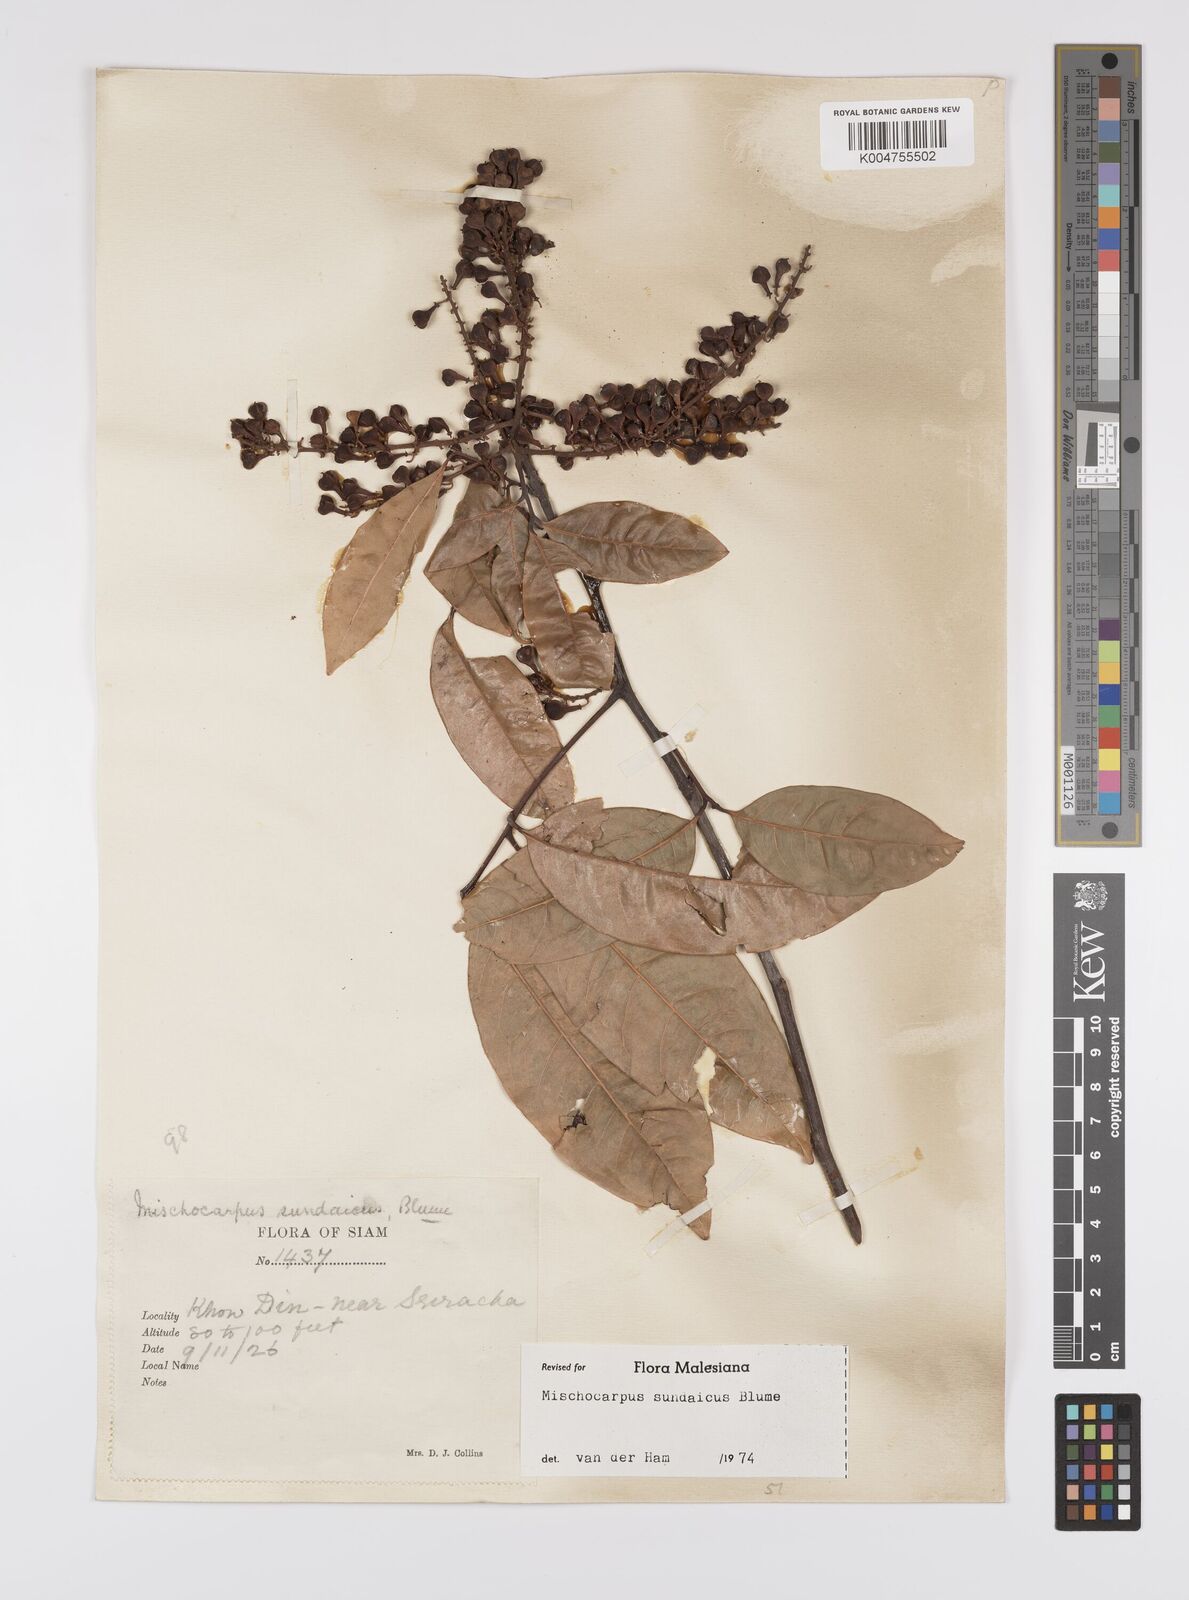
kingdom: Plantae
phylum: Tracheophyta
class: Magnoliopsida
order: Sapindales
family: Sapindaceae
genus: Mischocarpus
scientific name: Mischocarpus sundaicus
